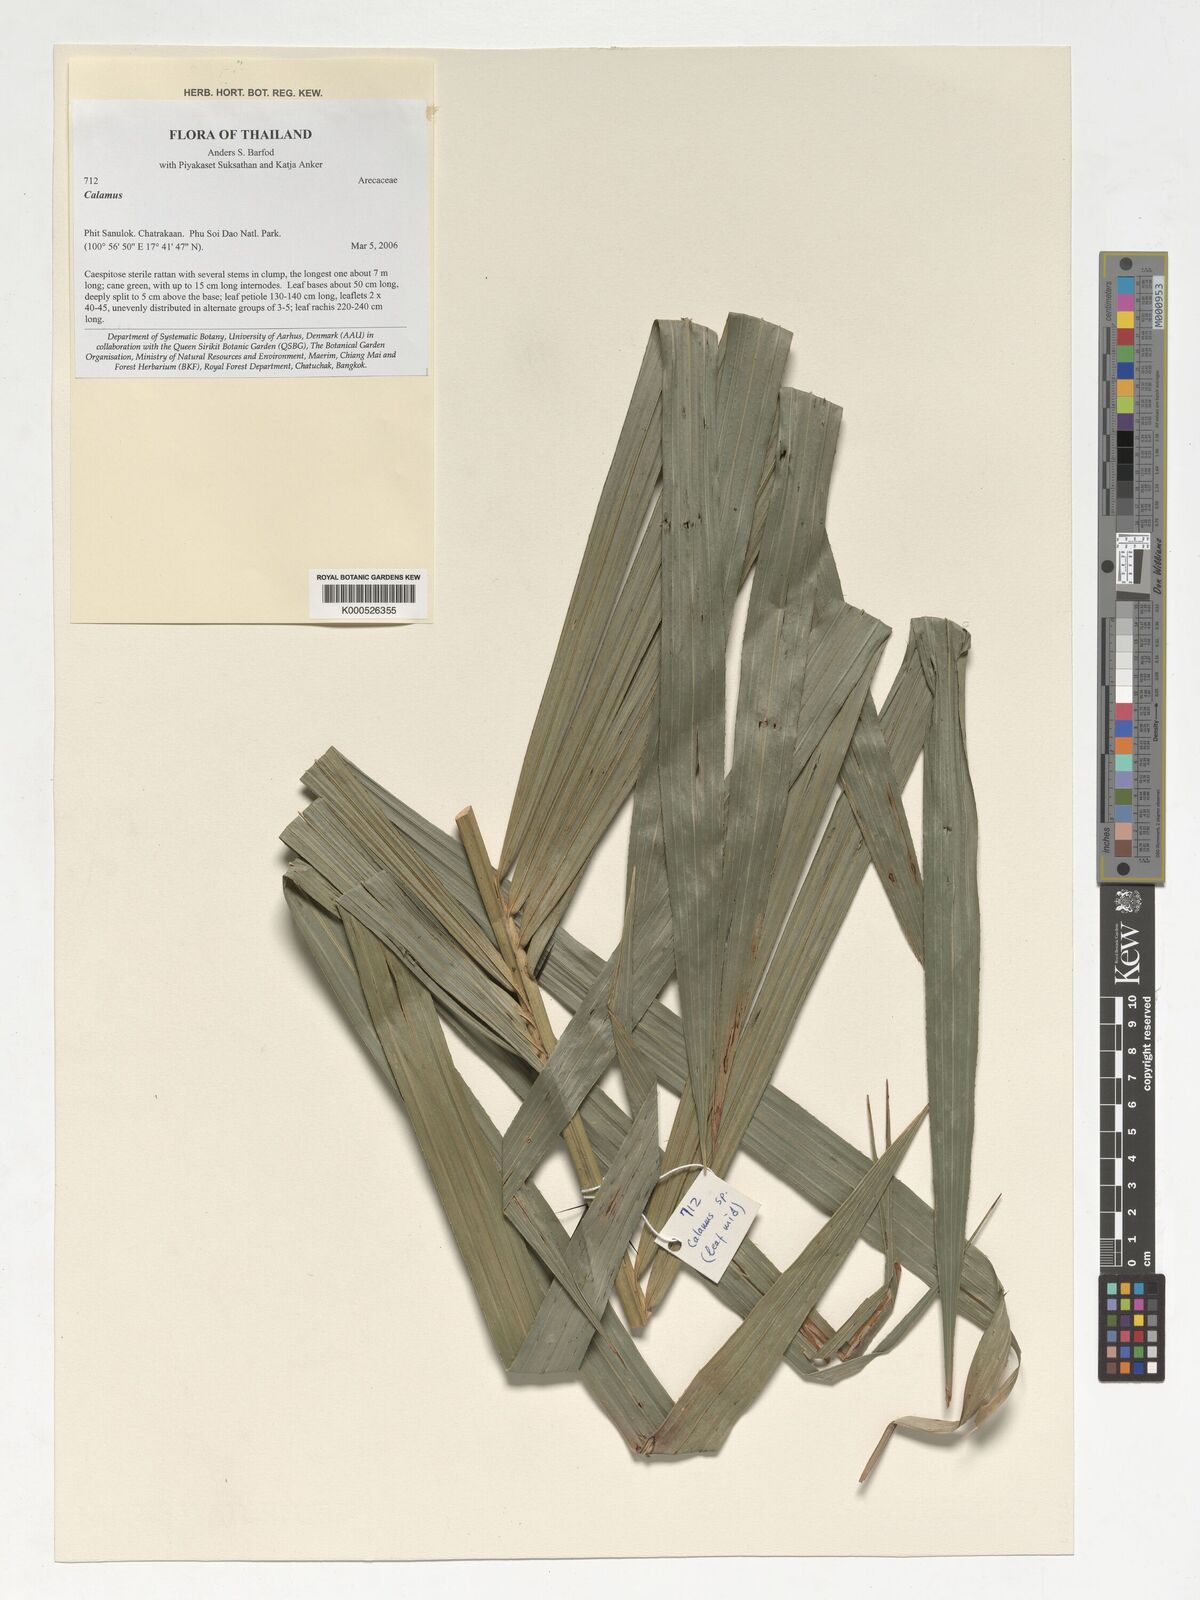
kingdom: Plantae
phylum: Tracheophyta
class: Liliopsida
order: Arecales
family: Arecaceae
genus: Calamus
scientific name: Calamus
